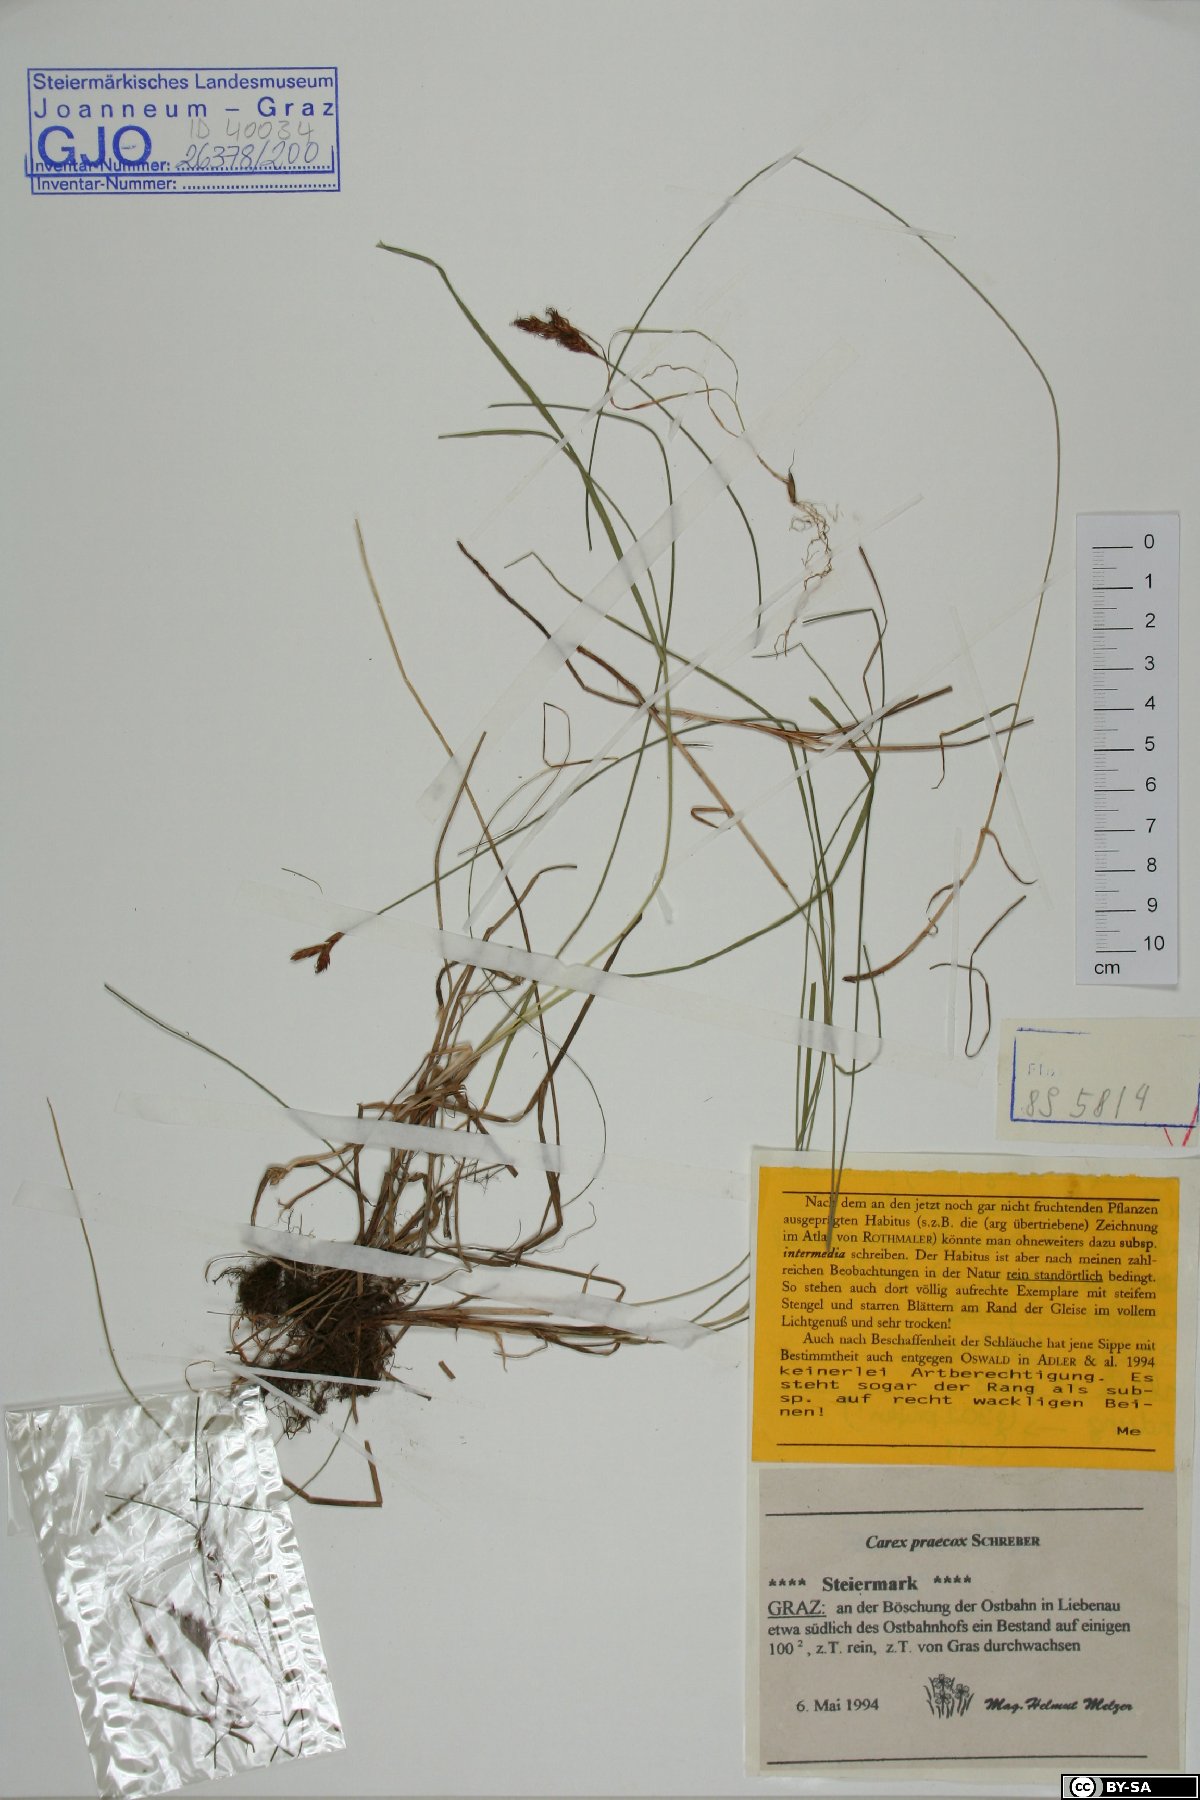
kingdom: Plantae
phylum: Tracheophyta
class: Liliopsida
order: Poales
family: Cyperaceae
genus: Carex
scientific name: Carex praecox
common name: Early sedge
